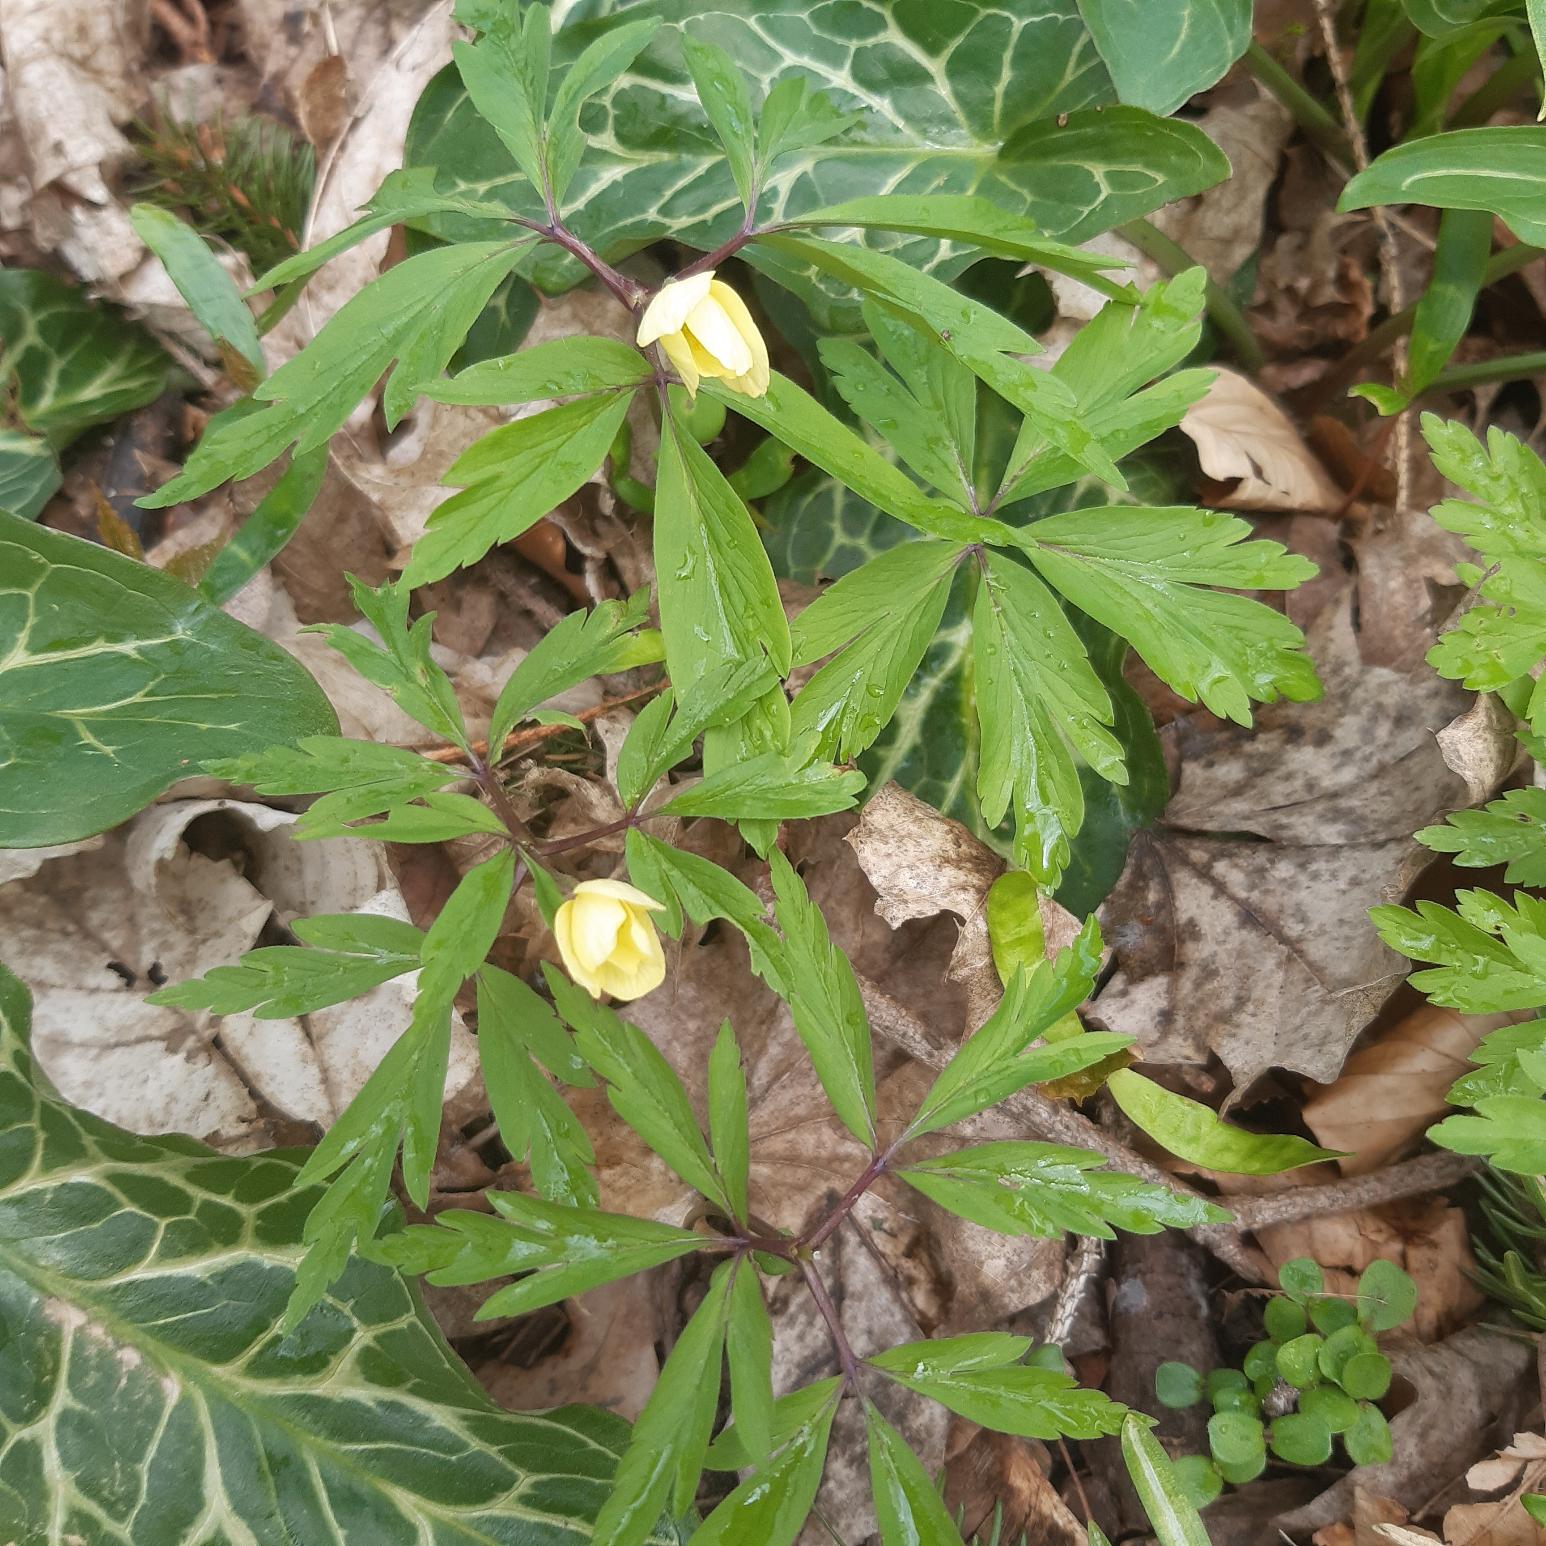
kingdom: Plantae
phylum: Tracheophyta
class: Magnoliopsida
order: Ranunculales
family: Ranunculaceae
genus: Anemone
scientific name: Anemone
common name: Svovlgul anemone
